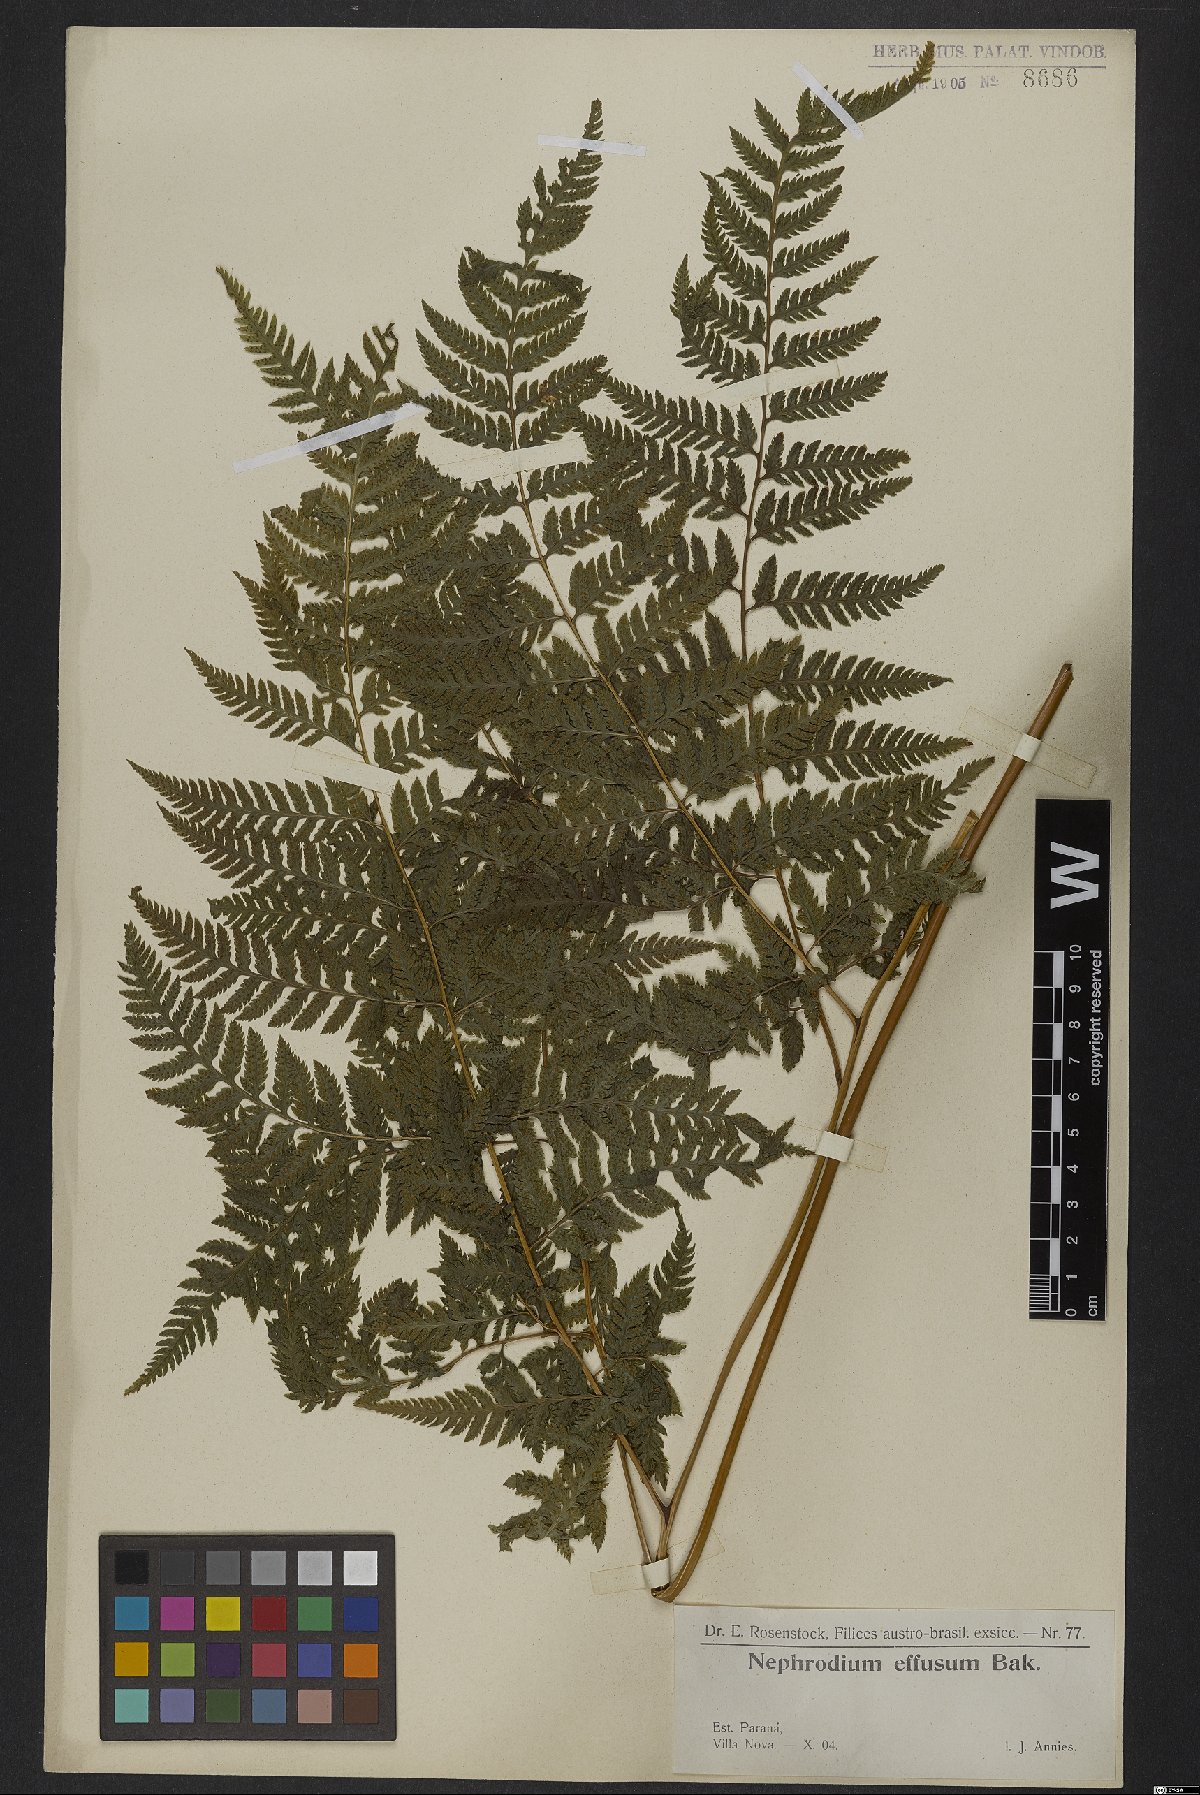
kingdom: Plantae
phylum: Tracheophyta
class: Polypodiopsida
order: Polypodiales
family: Dryopteridaceae
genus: Parapolystichum
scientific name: Parapolystichum effusum
